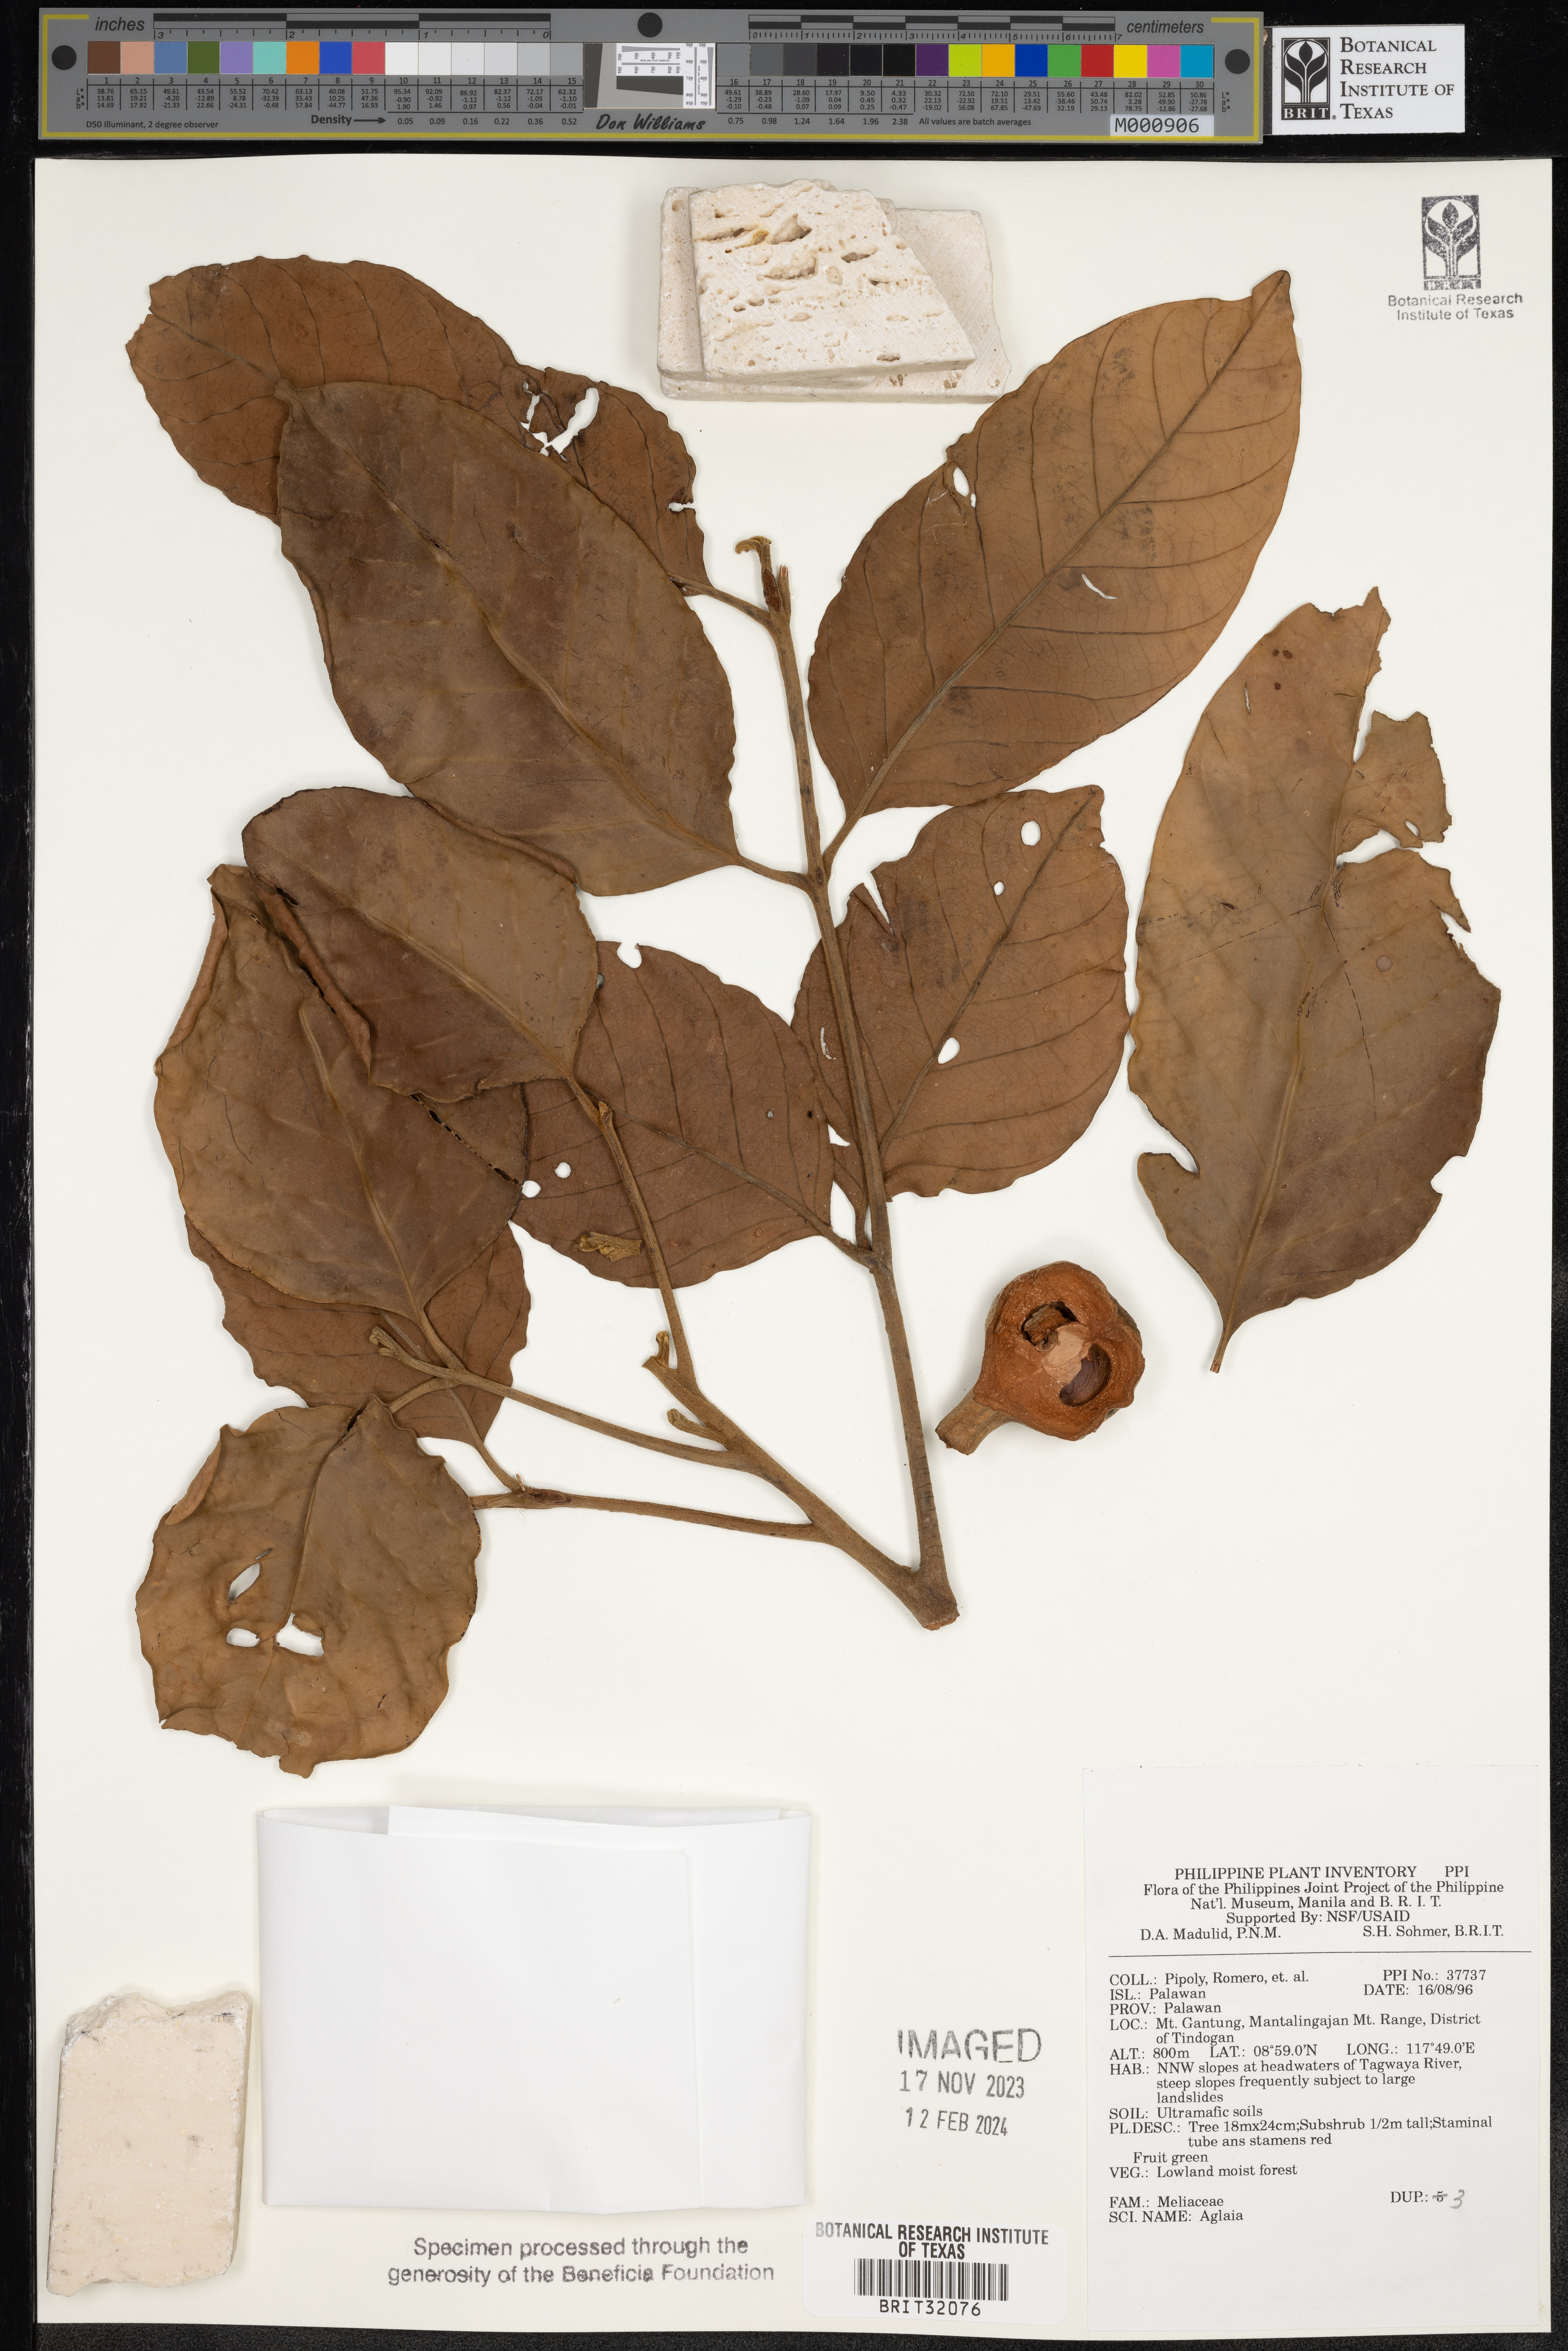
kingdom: Plantae
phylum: Tracheophyta
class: Magnoliopsida
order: Sapindales
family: Meliaceae
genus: Aglaia
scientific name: Aglaia
